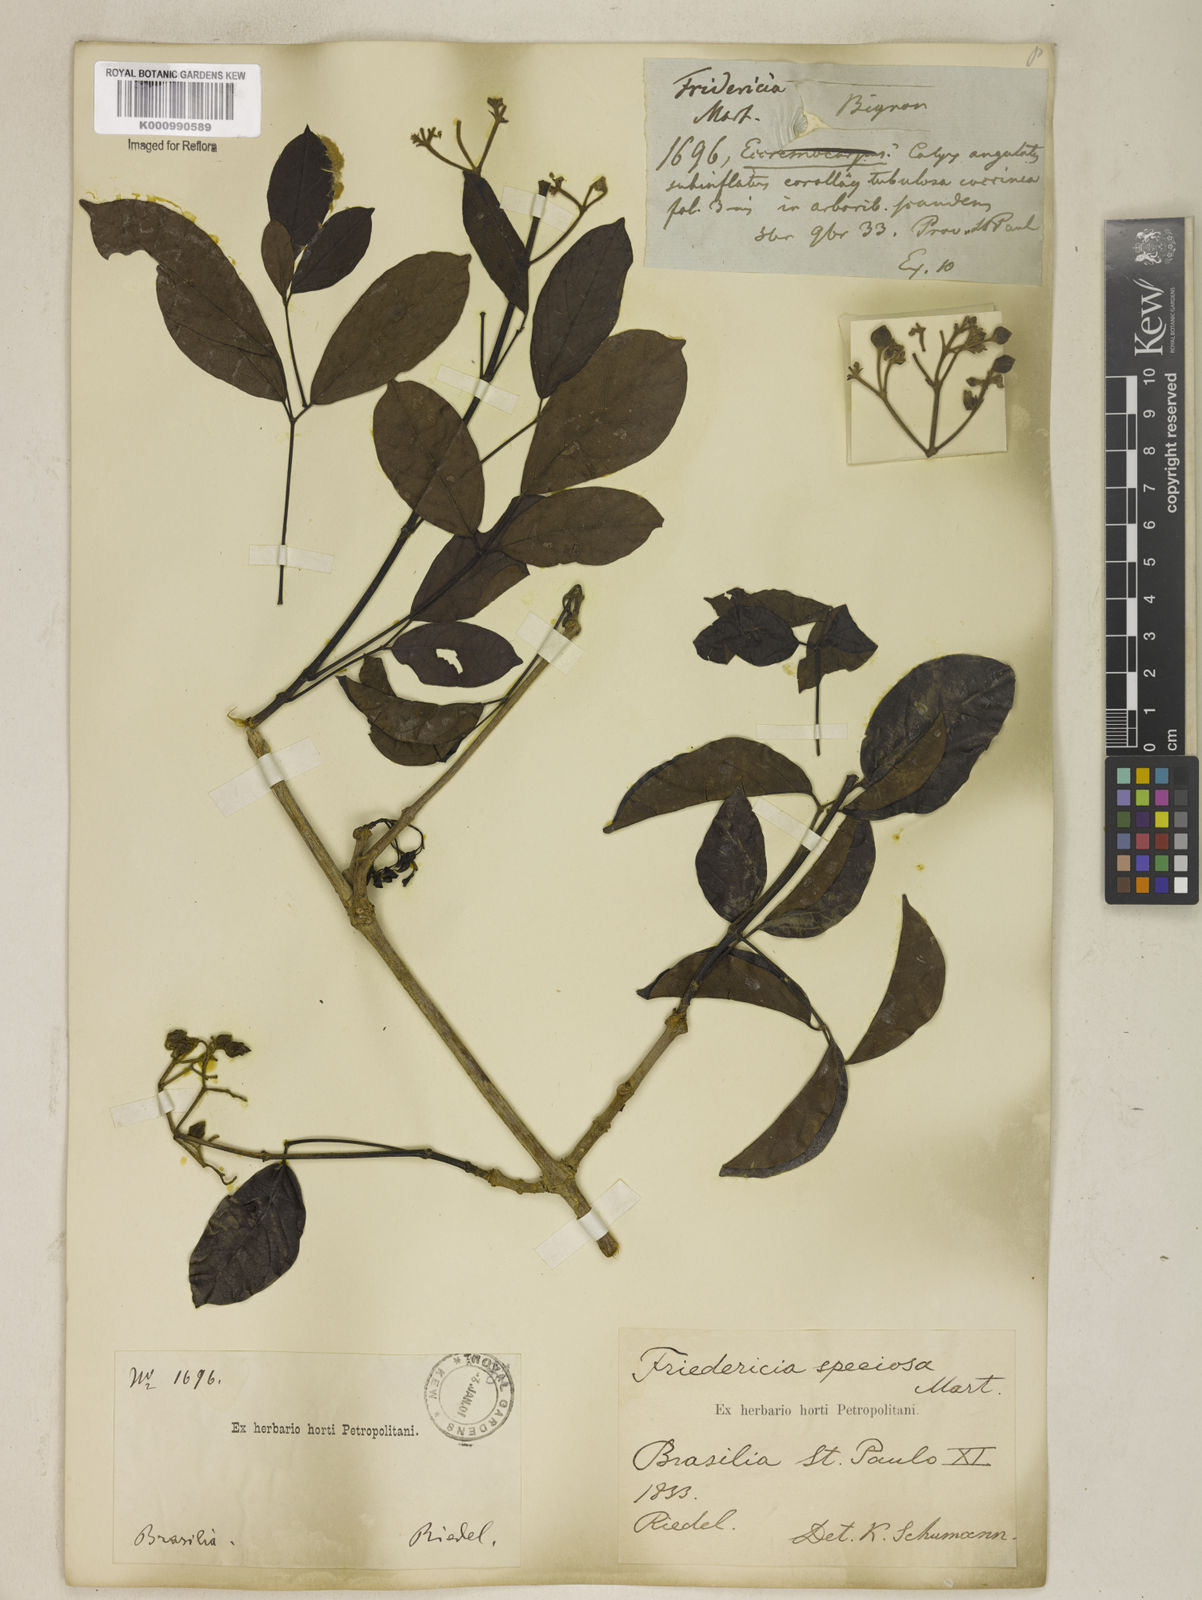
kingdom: Plantae
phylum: Tracheophyta
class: Magnoliopsida
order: Lamiales
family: Bignoniaceae
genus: Fridericia
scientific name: Fridericia speciosa
